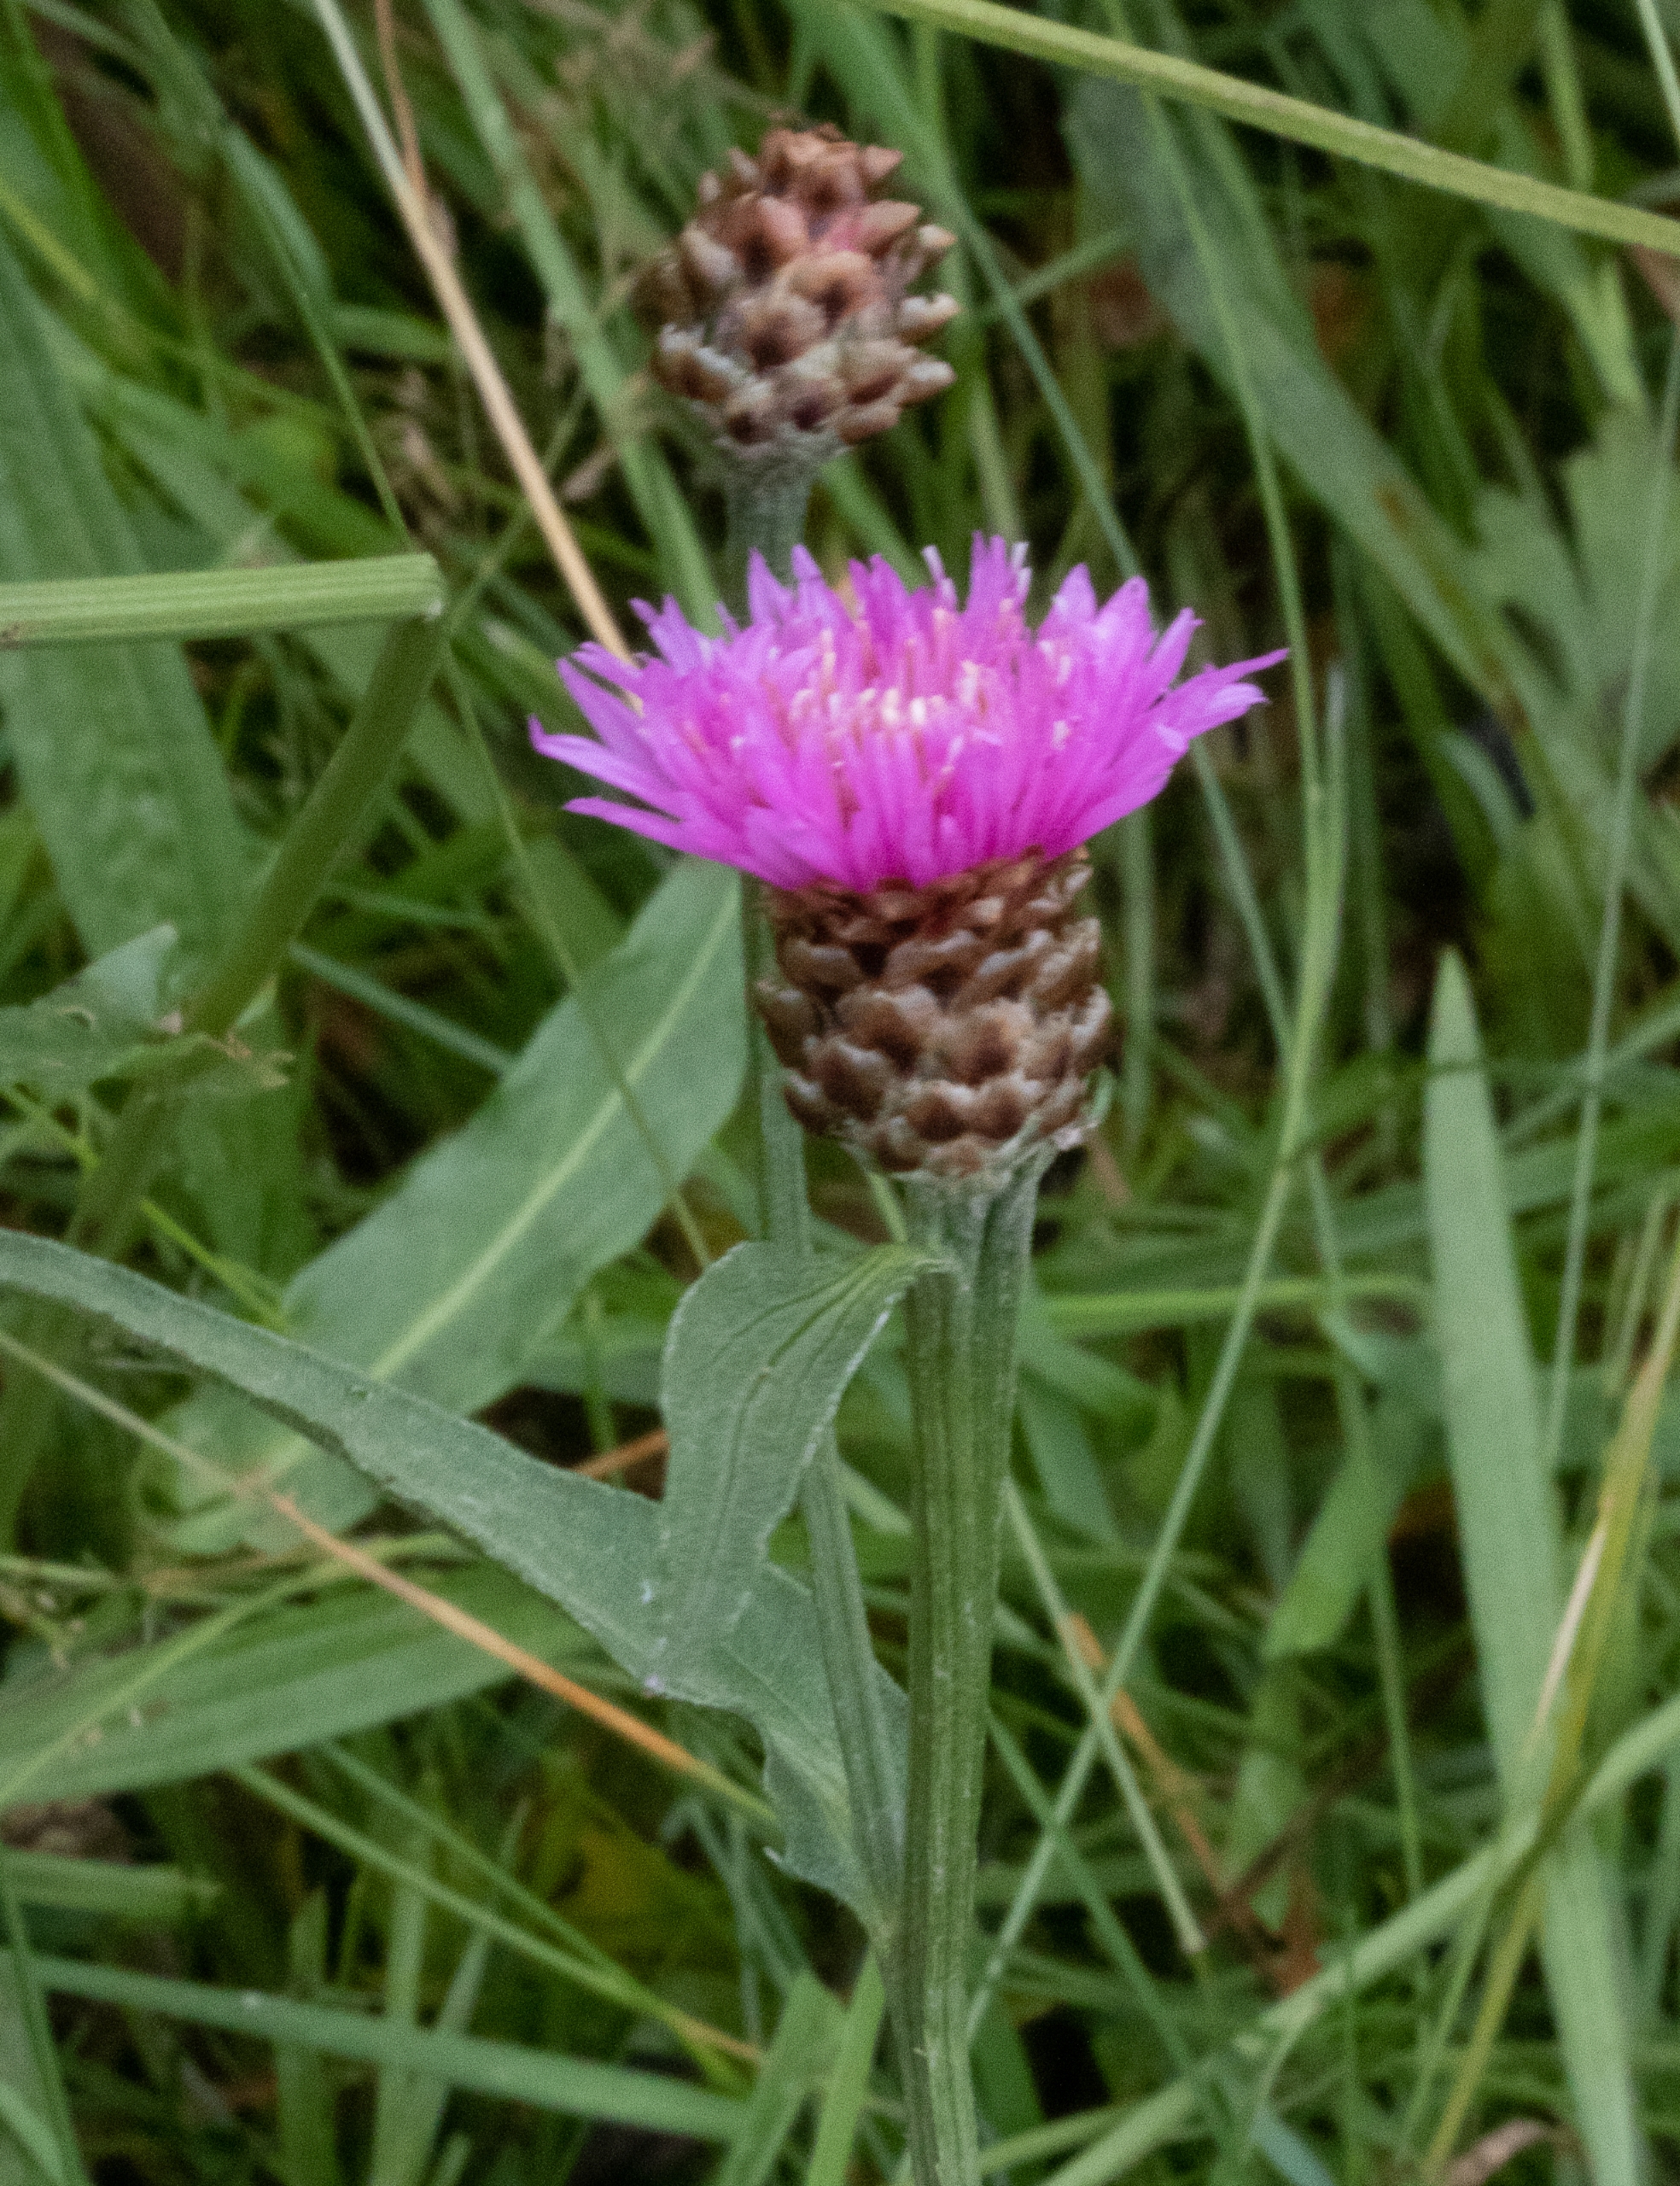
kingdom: Plantae
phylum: Tracheophyta
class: Magnoliopsida
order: Asterales
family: Asteraceae
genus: Centaurea
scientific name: Centaurea jacea
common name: Almindelig knopurt
